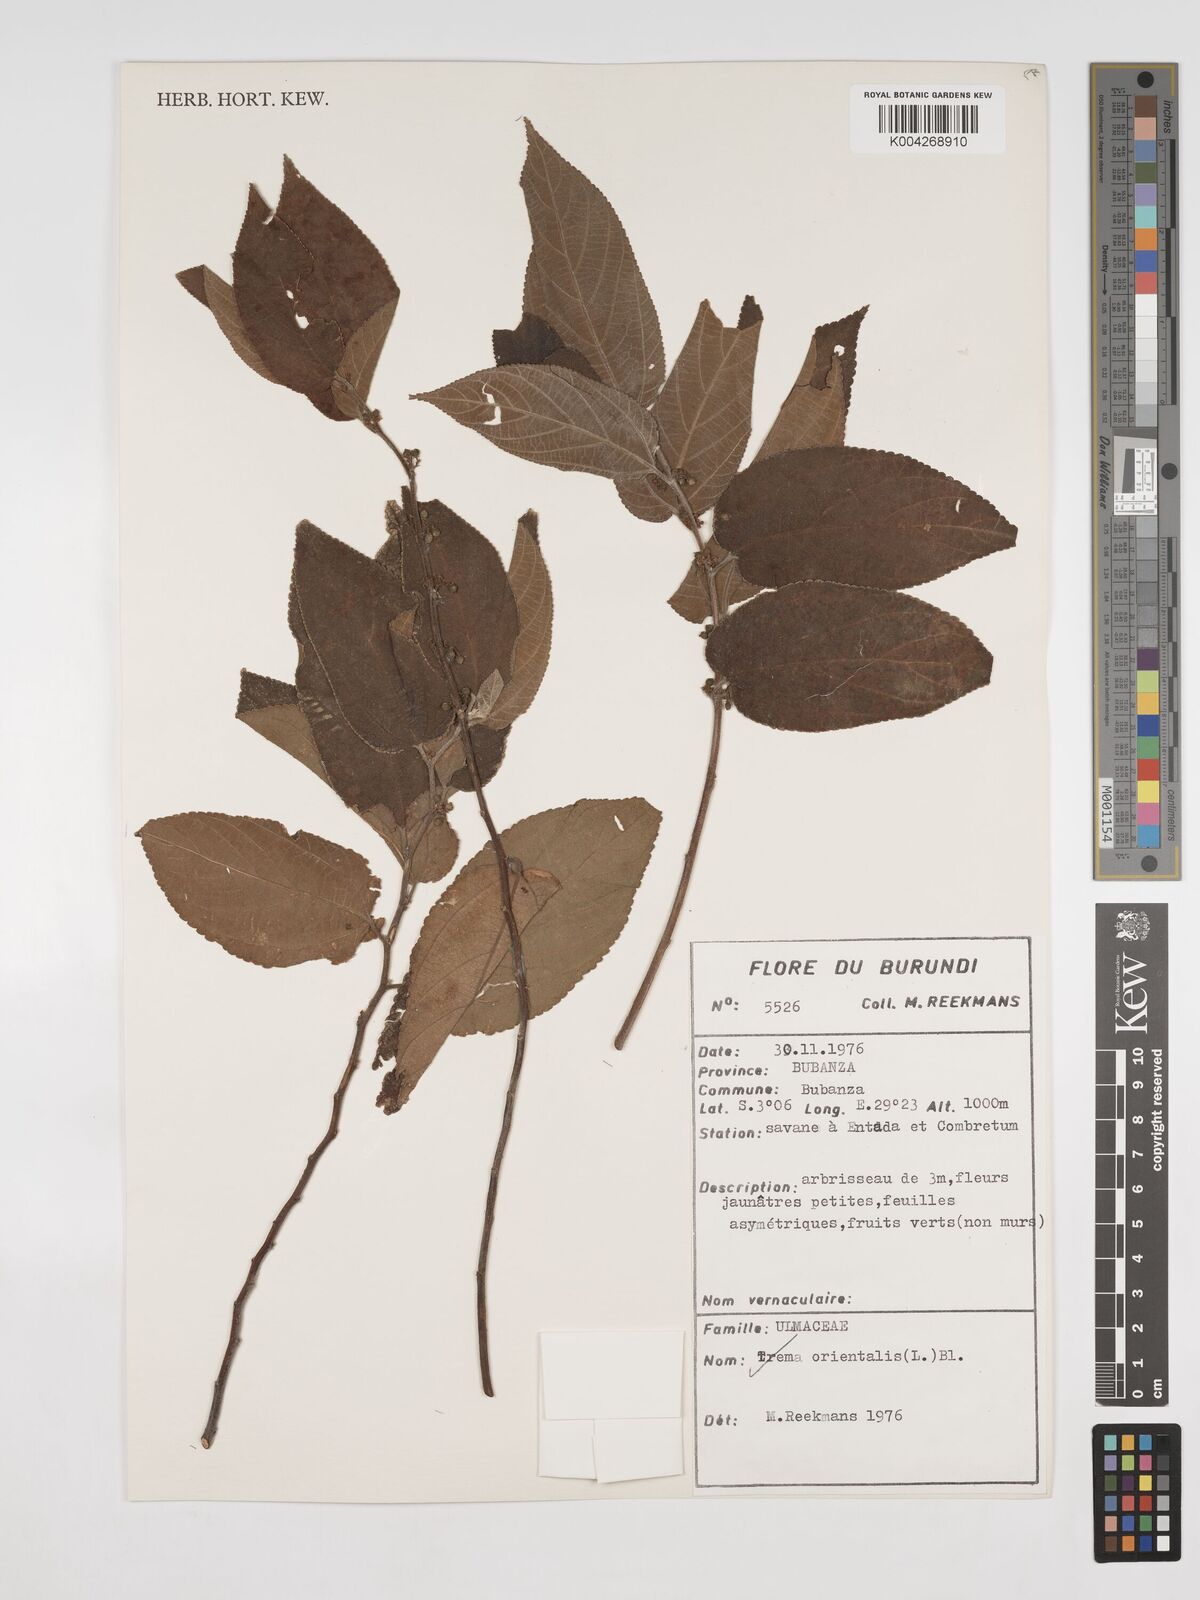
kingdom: Plantae
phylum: Tracheophyta
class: Magnoliopsida
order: Rosales
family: Cannabaceae
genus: Trema
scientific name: Trema orientale
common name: Indian charcoal tree
